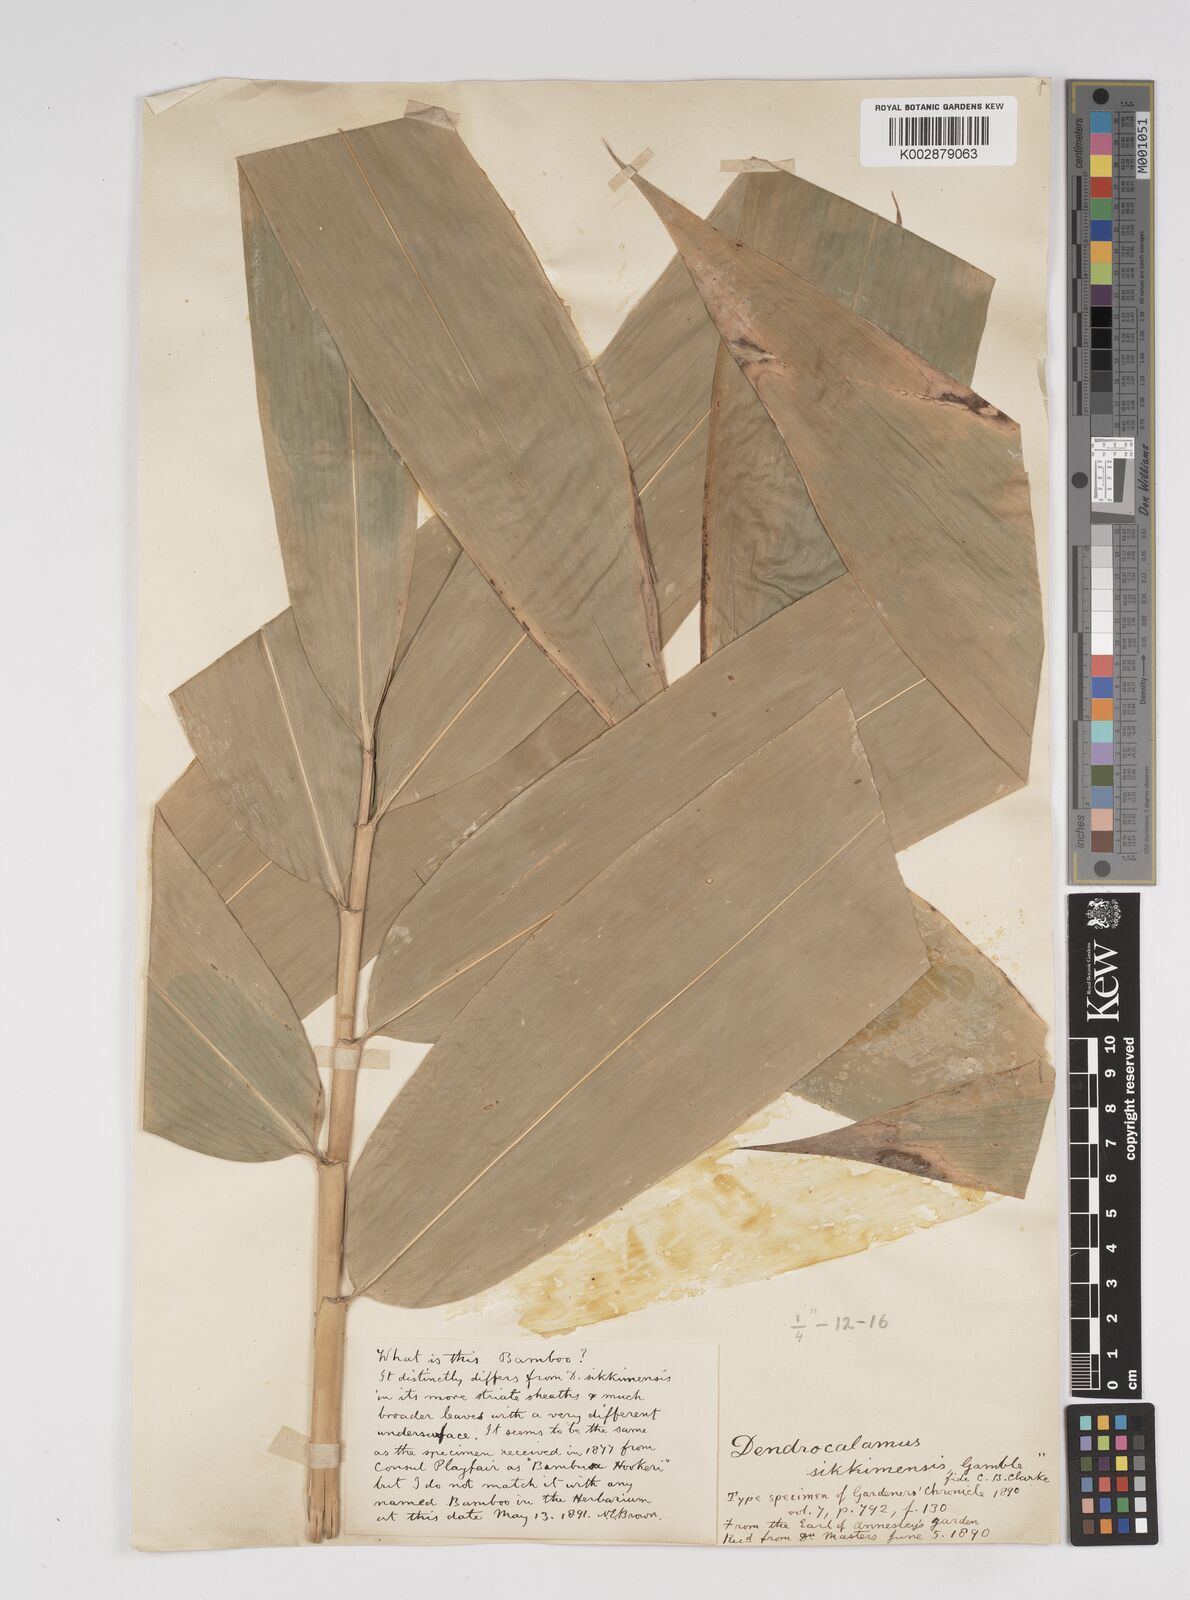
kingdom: Plantae
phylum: Tracheophyta
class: Liliopsida
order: Poales
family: Poaceae
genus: Dendrocalamus
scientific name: Dendrocalamus sikkimensis
